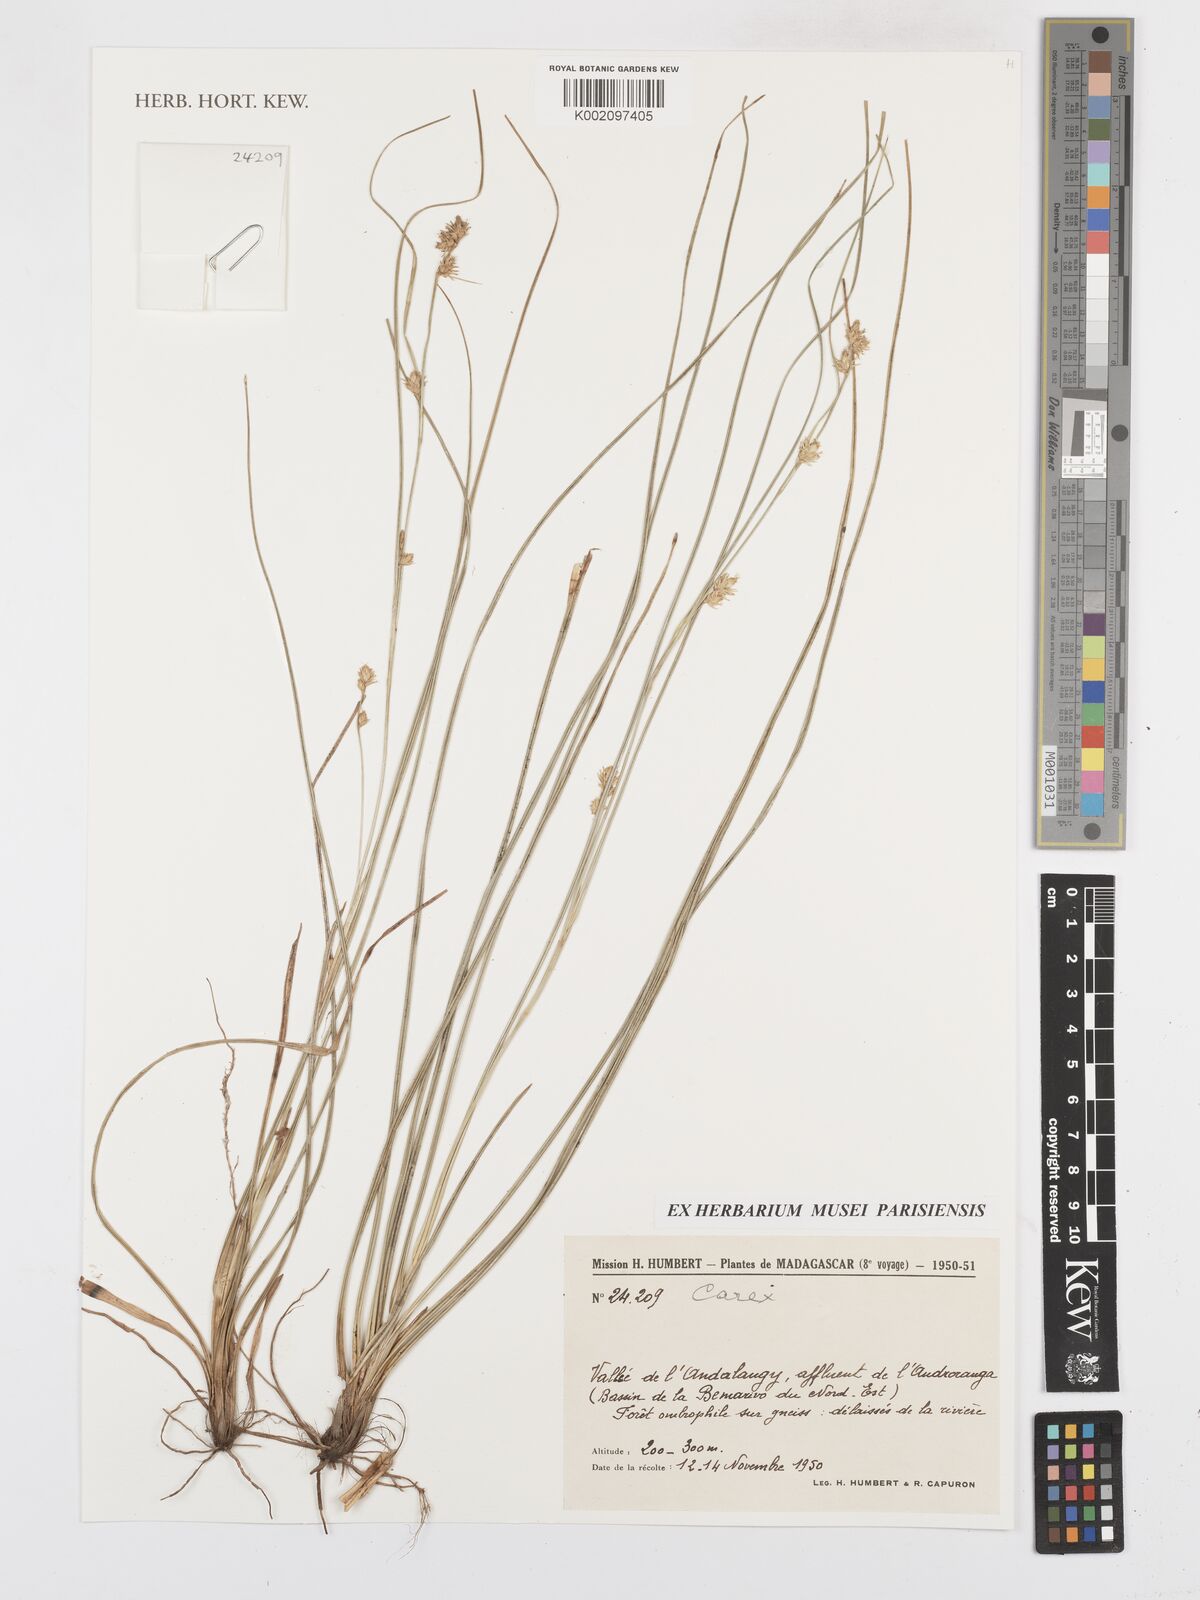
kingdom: Plantae
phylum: Tracheophyta
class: Liliopsida
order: Poales
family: Cyperaceae
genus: Carex
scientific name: Carex
